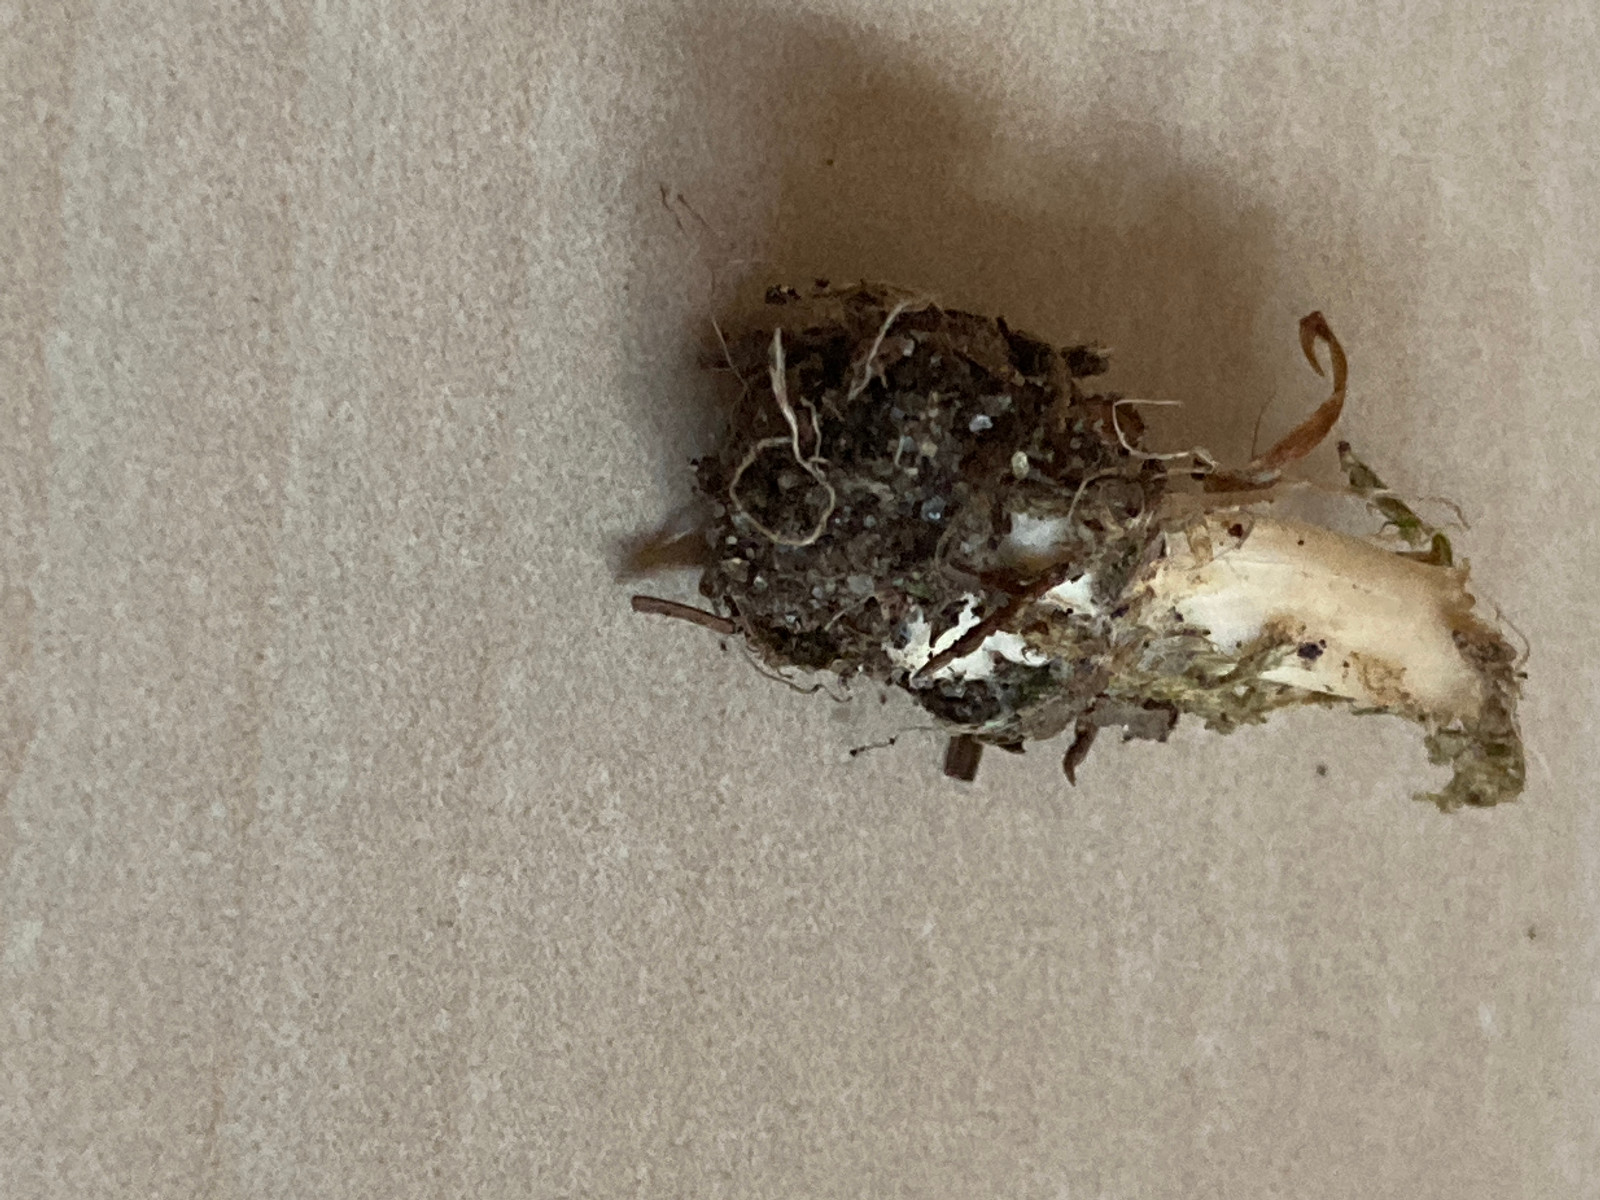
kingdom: Fungi
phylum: Basidiomycota
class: Agaricomycetes
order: Agaricales
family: Omphalotaceae
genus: Gymnopus
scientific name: Gymnopus
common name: fladhat
